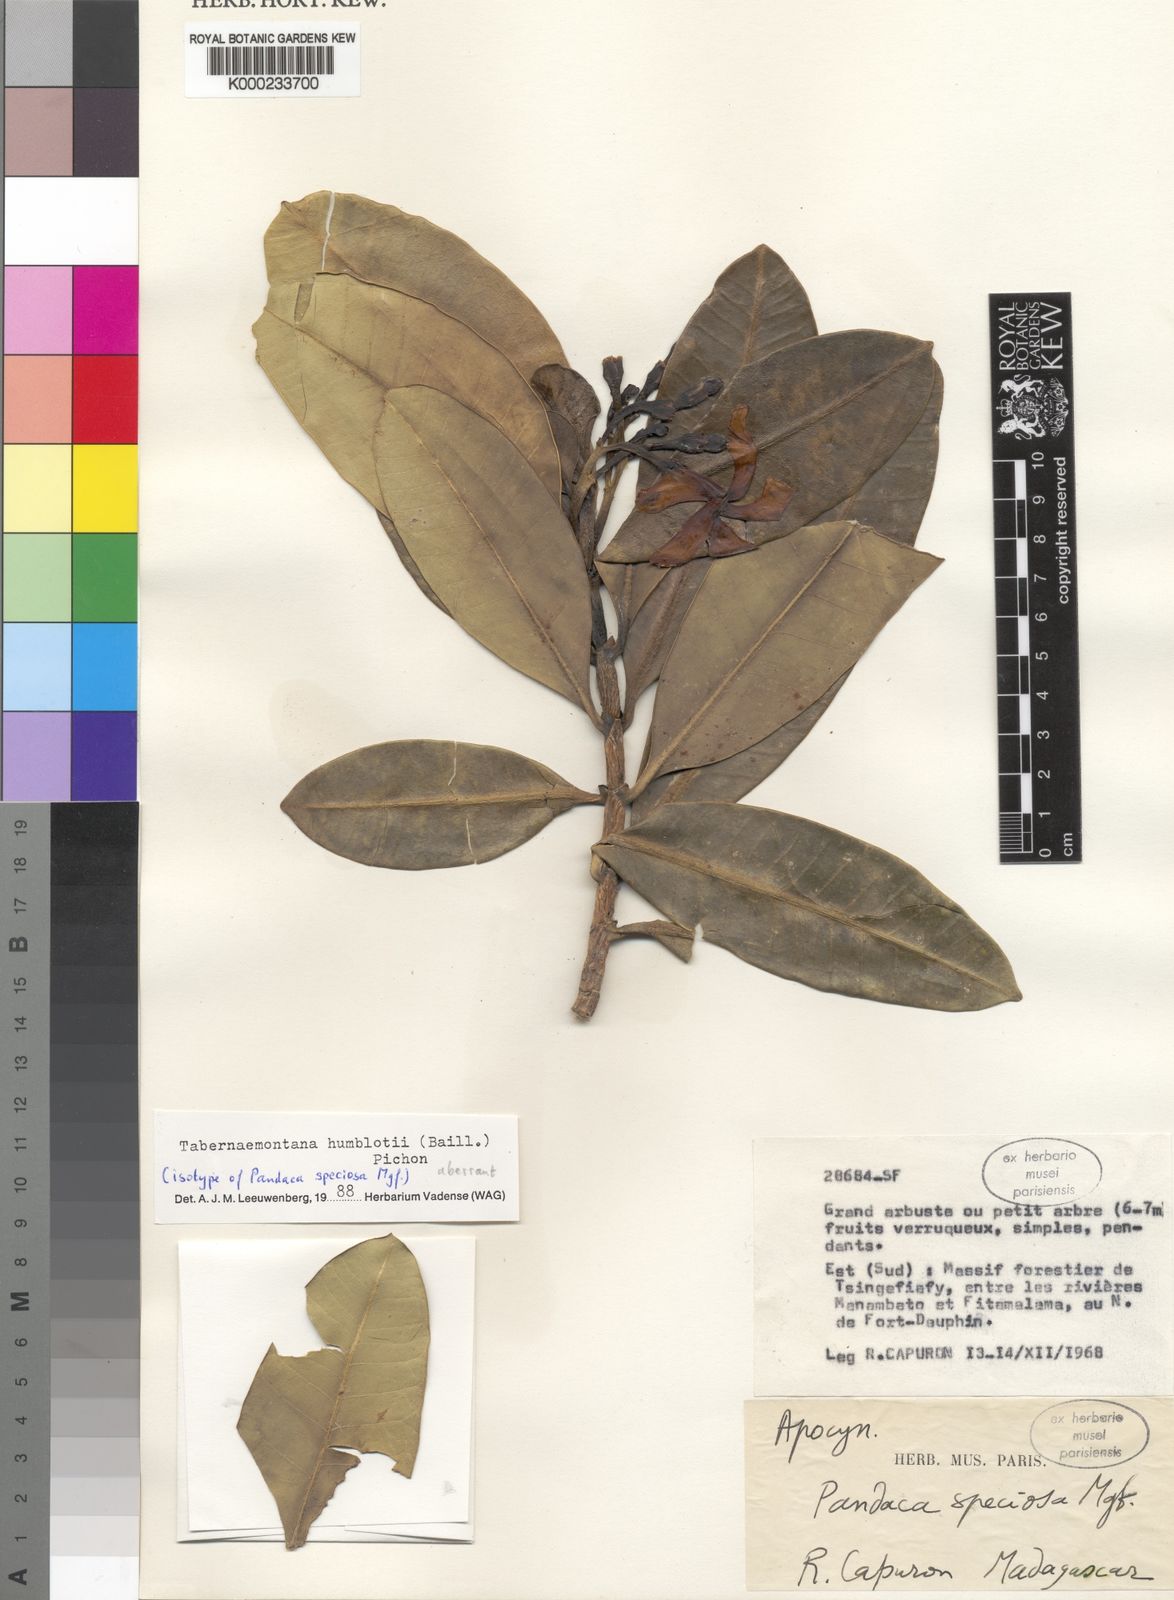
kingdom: Plantae
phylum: Tracheophyta
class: Magnoliopsida
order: Gentianales
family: Apocynaceae
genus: Tabernaemontana
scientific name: Tabernaemontana humblotii
